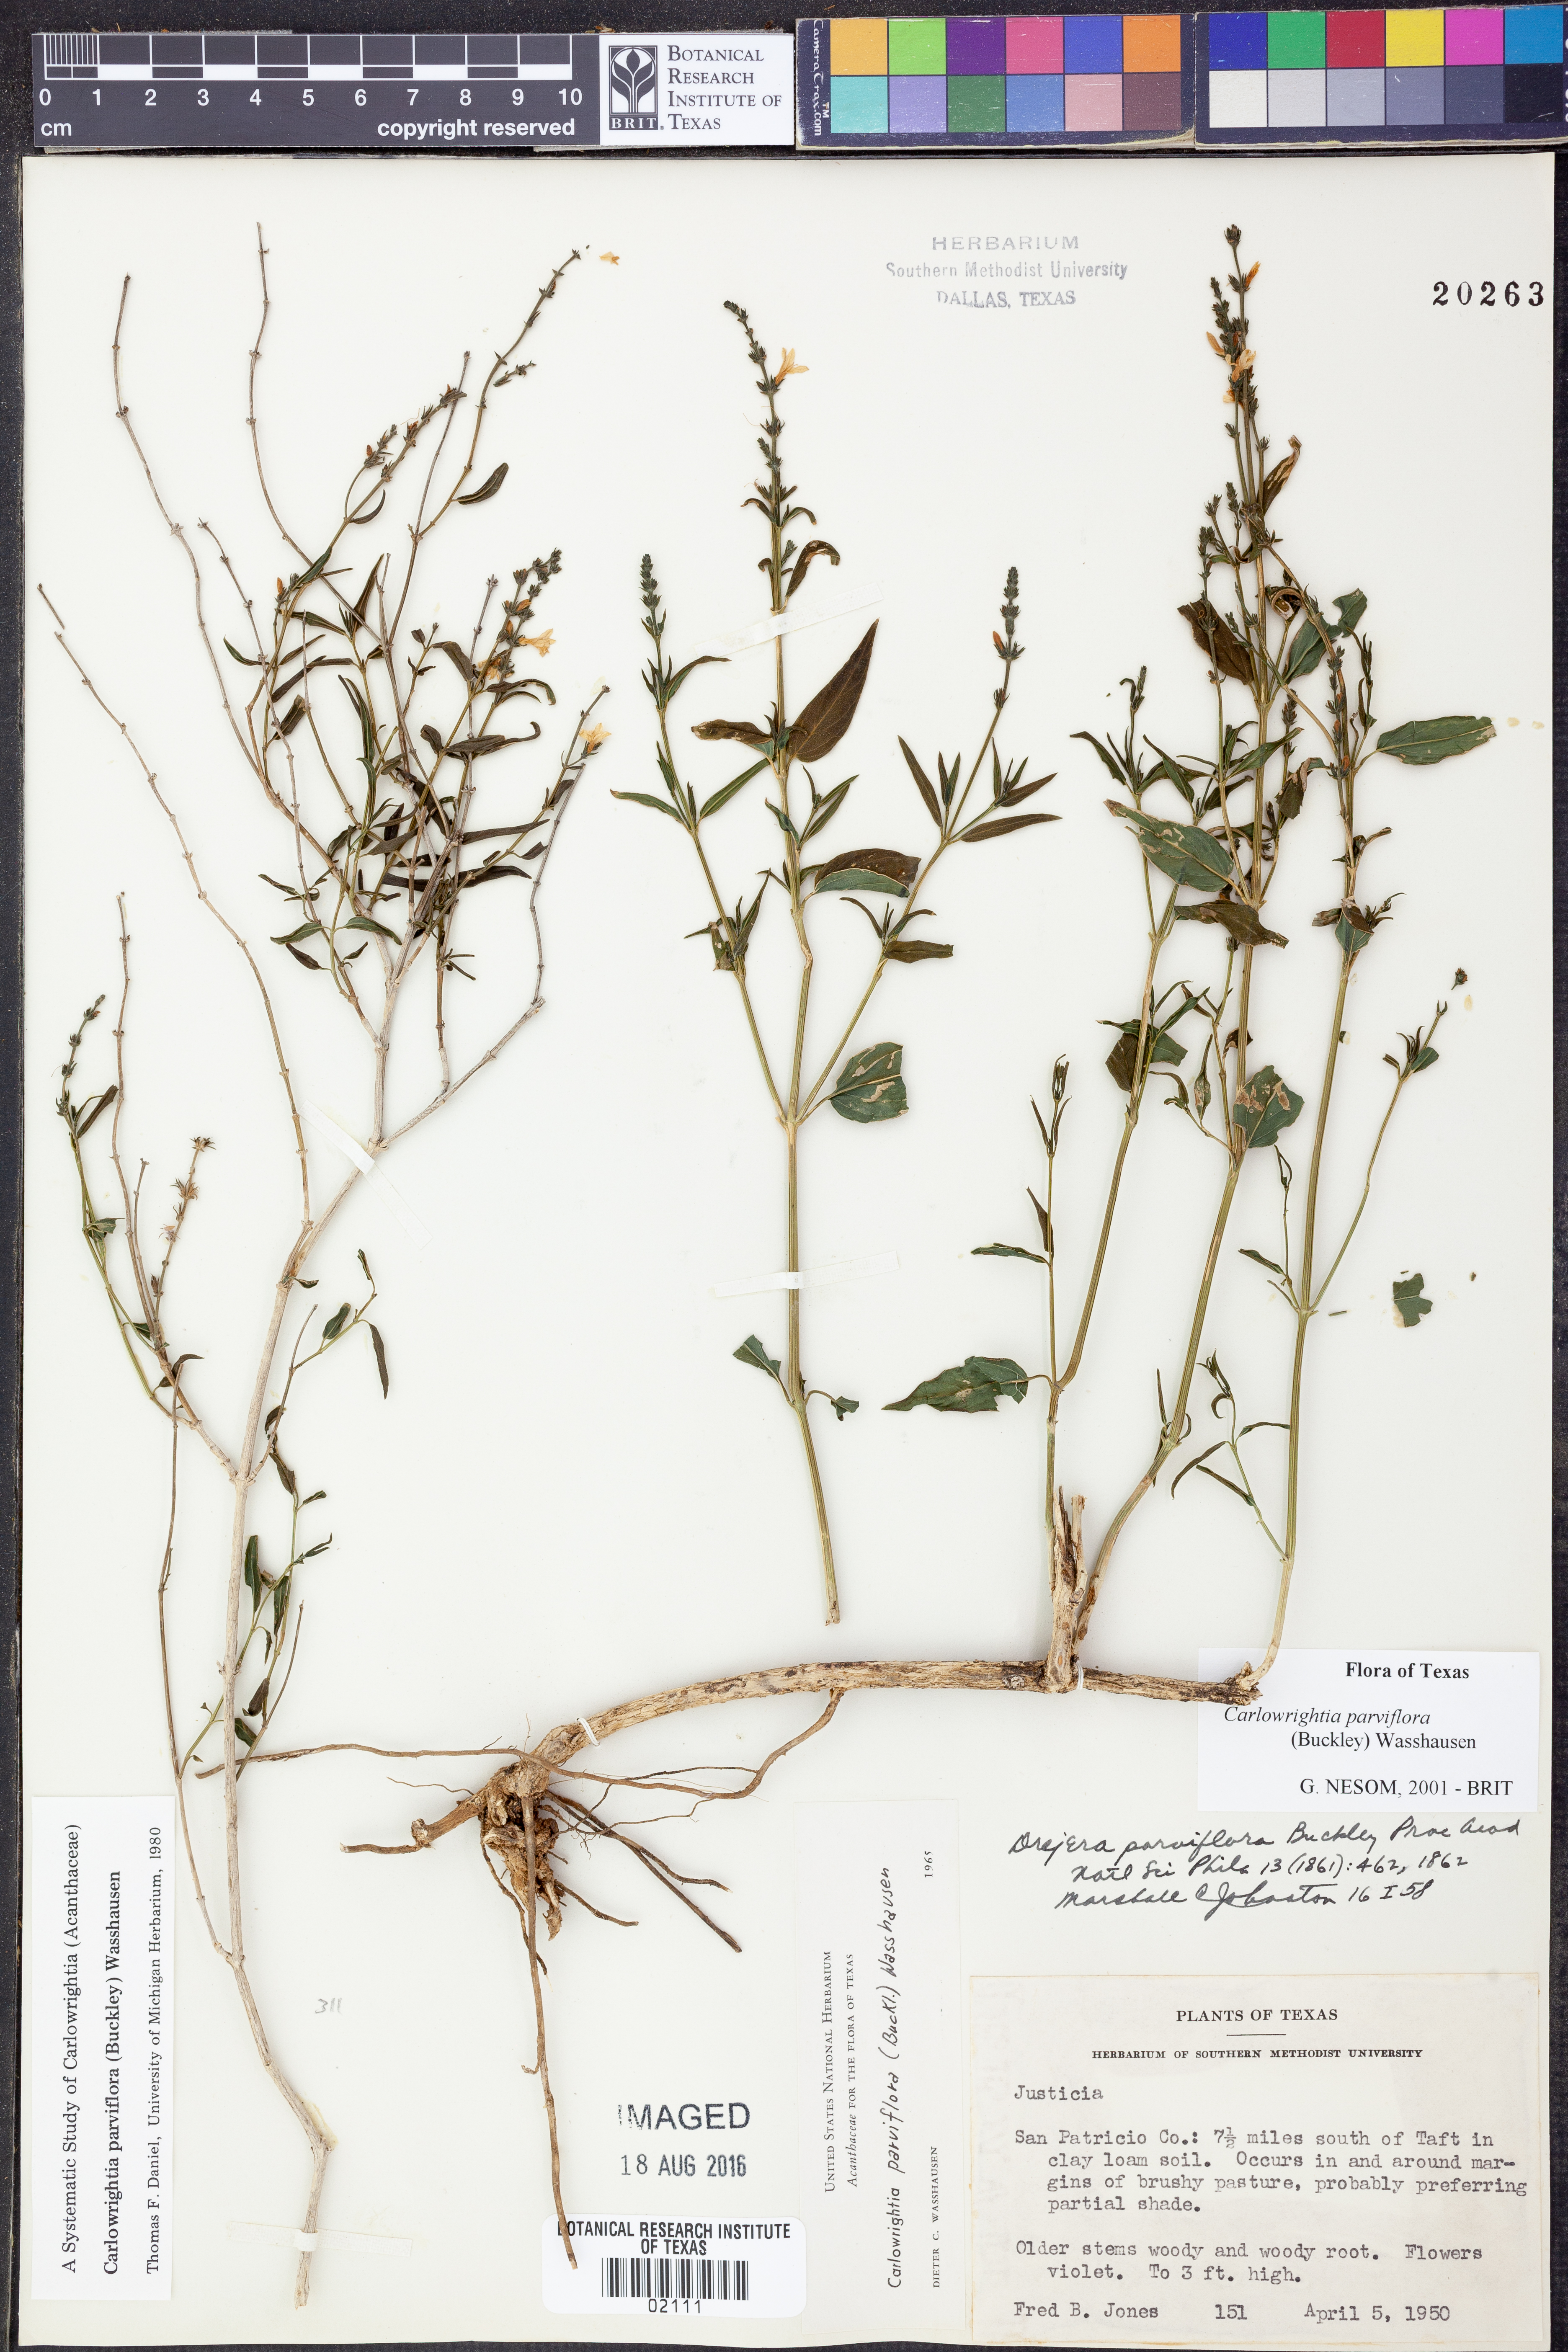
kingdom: Plantae
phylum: Tracheophyta
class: Magnoliopsida
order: Lamiales
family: Acanthaceae
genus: Carlowrightia
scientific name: Carlowrightia parviflora
